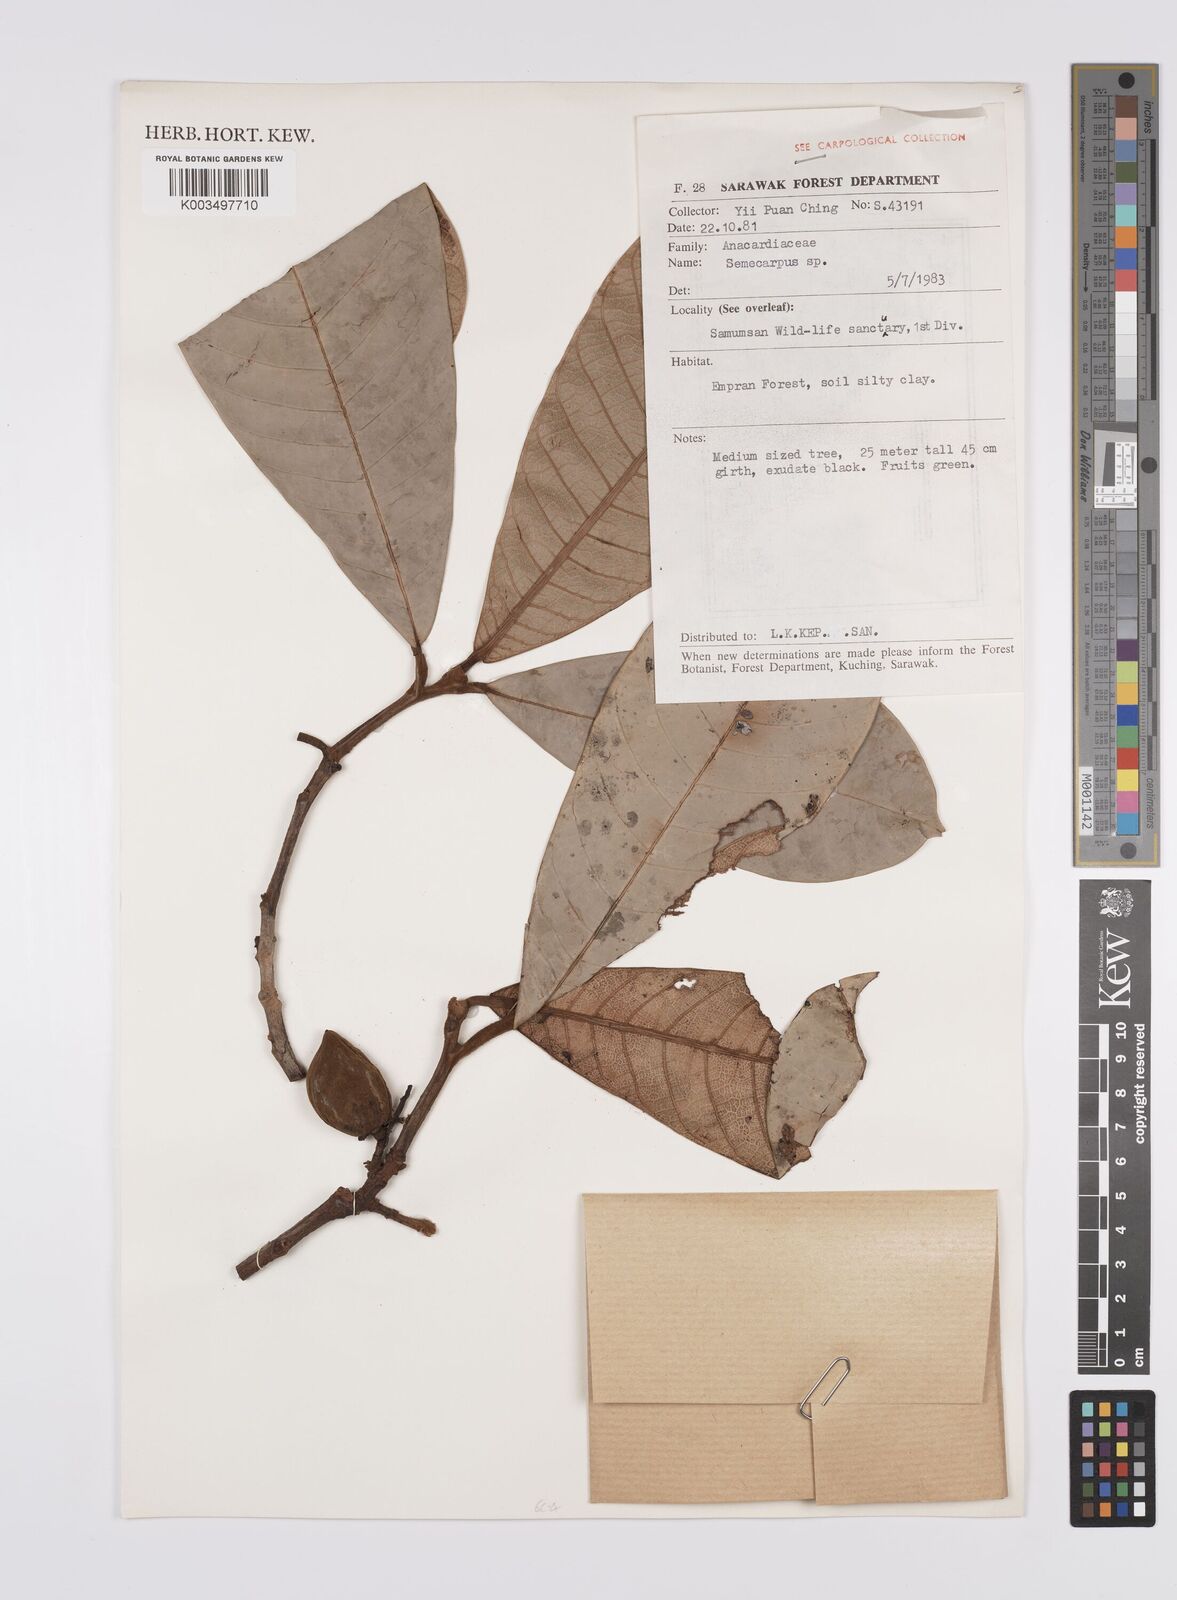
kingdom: Plantae
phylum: Tracheophyta
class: Magnoliopsida
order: Sapindales
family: Anacardiaceae
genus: Semecarpus
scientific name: Semecarpus
